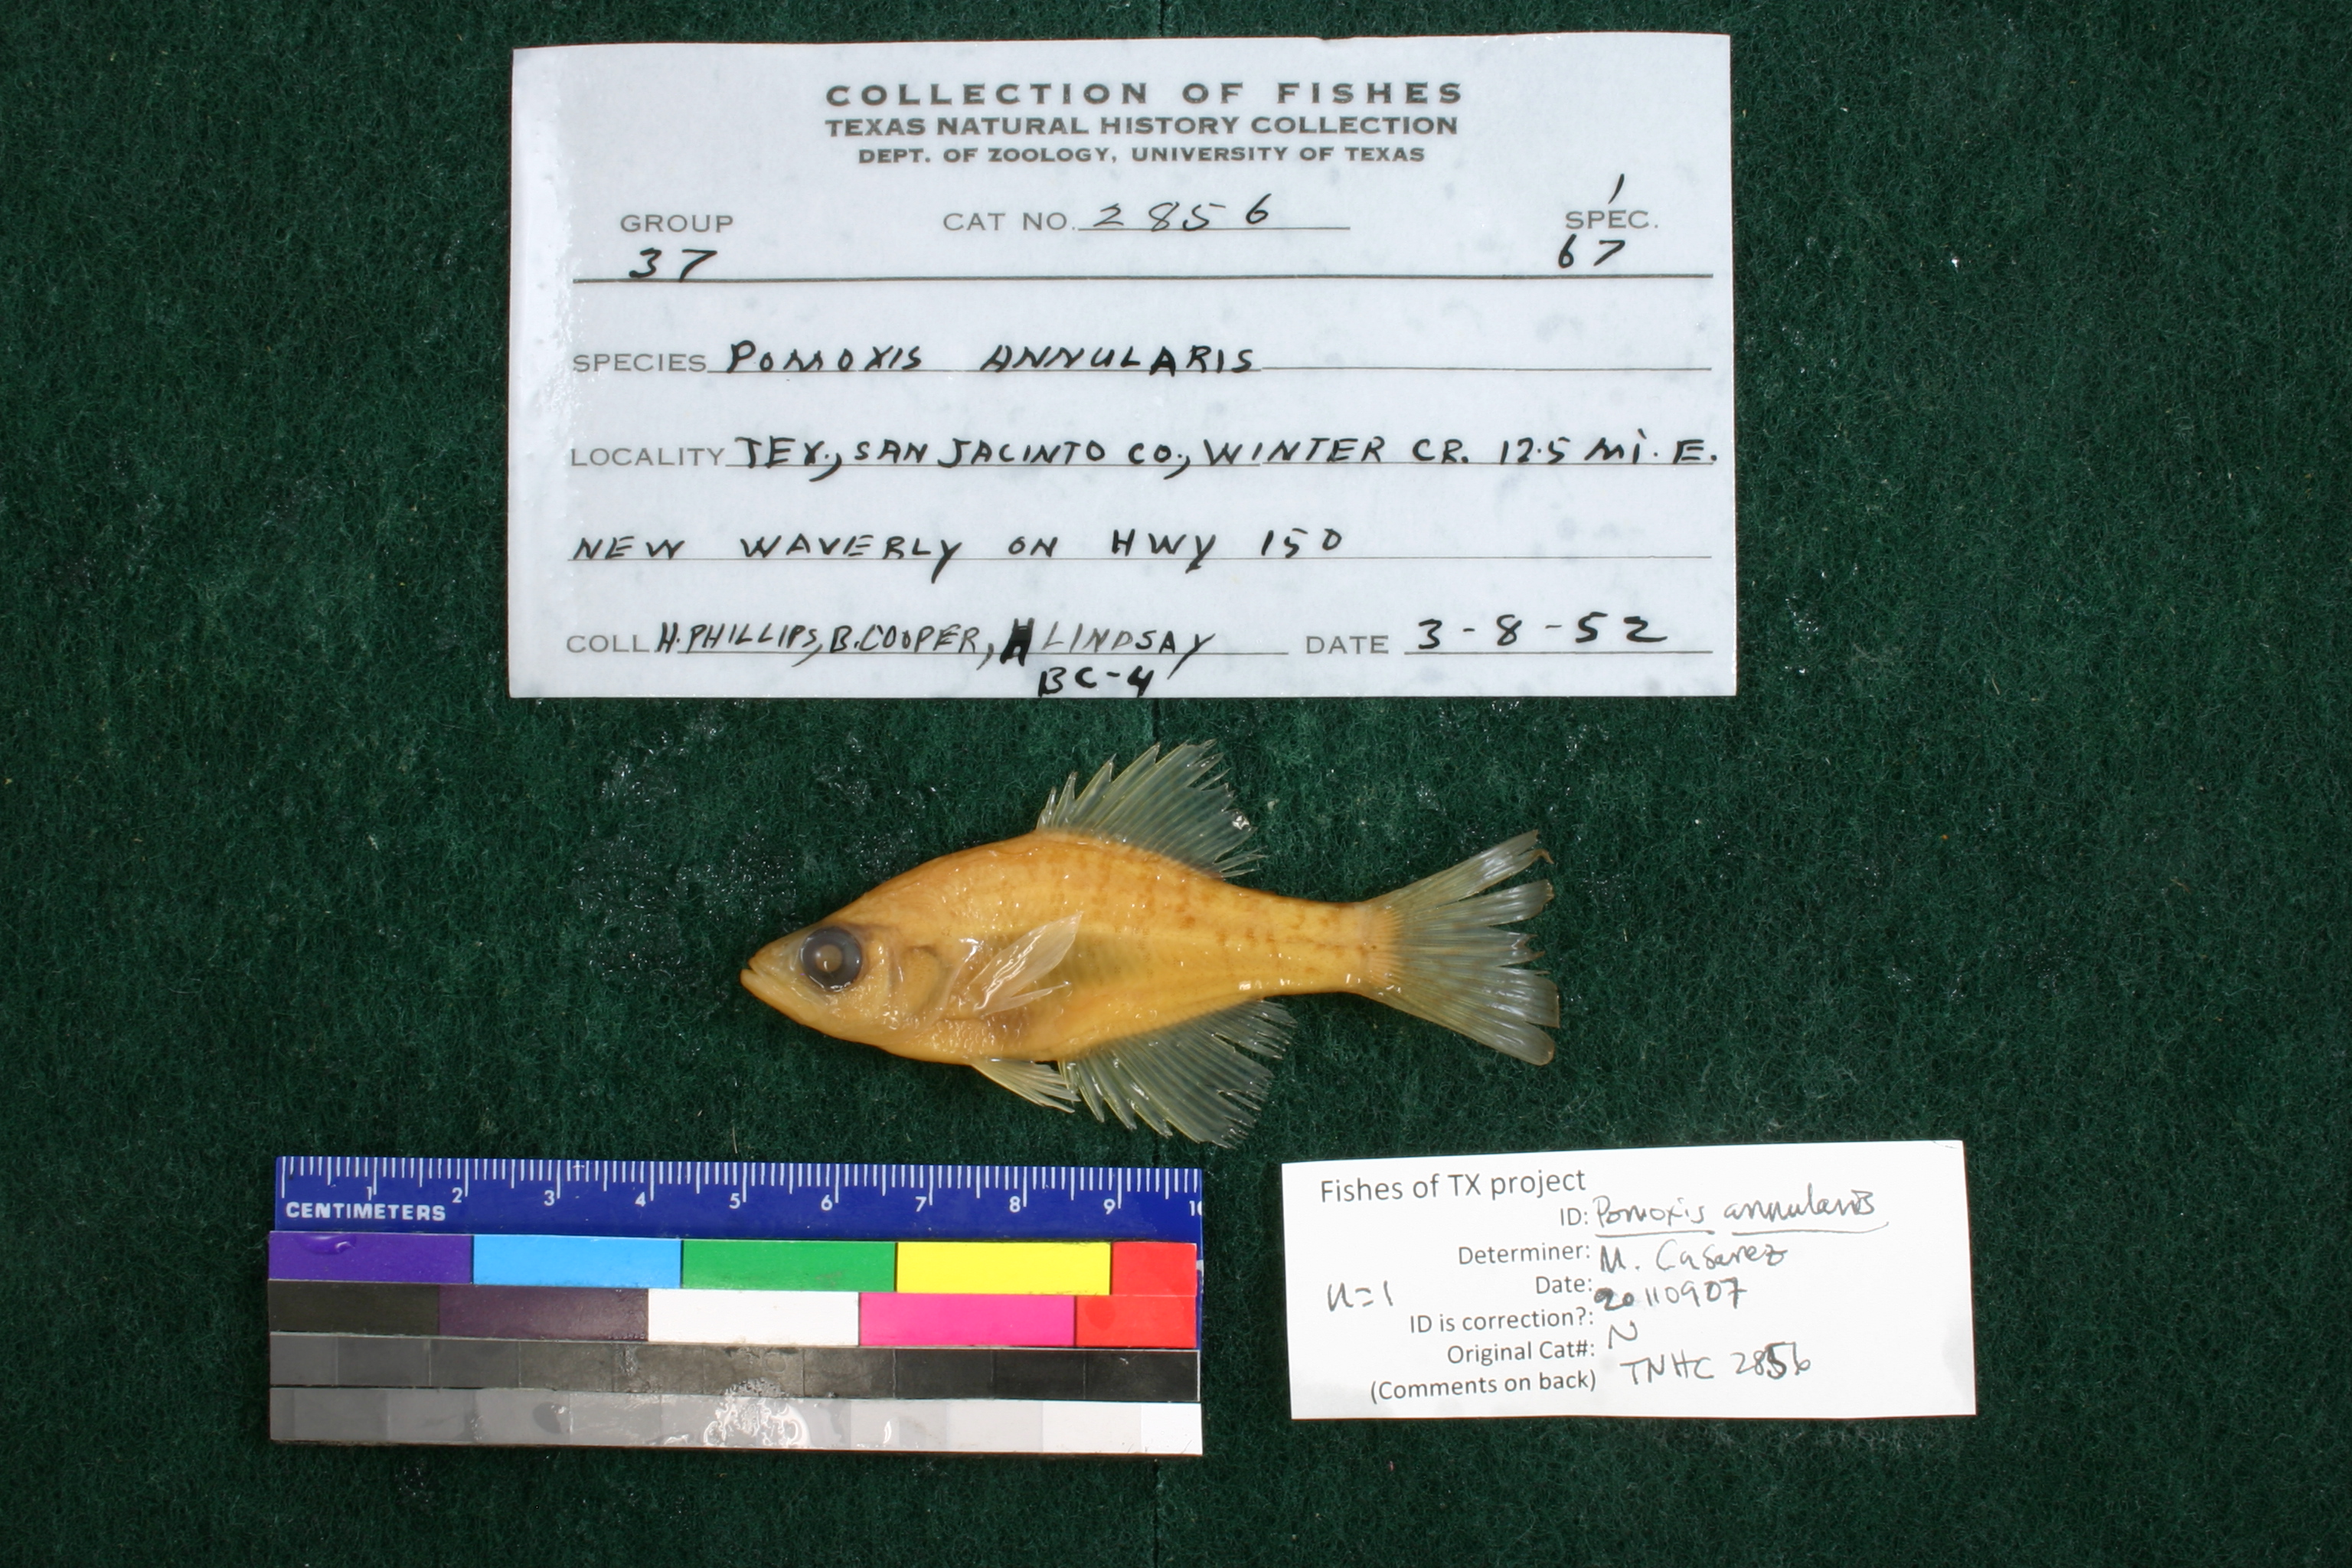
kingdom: Animalia
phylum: Chordata
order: Perciformes
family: Centrarchidae
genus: Pomoxis
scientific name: Pomoxis annularis
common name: White crappie
